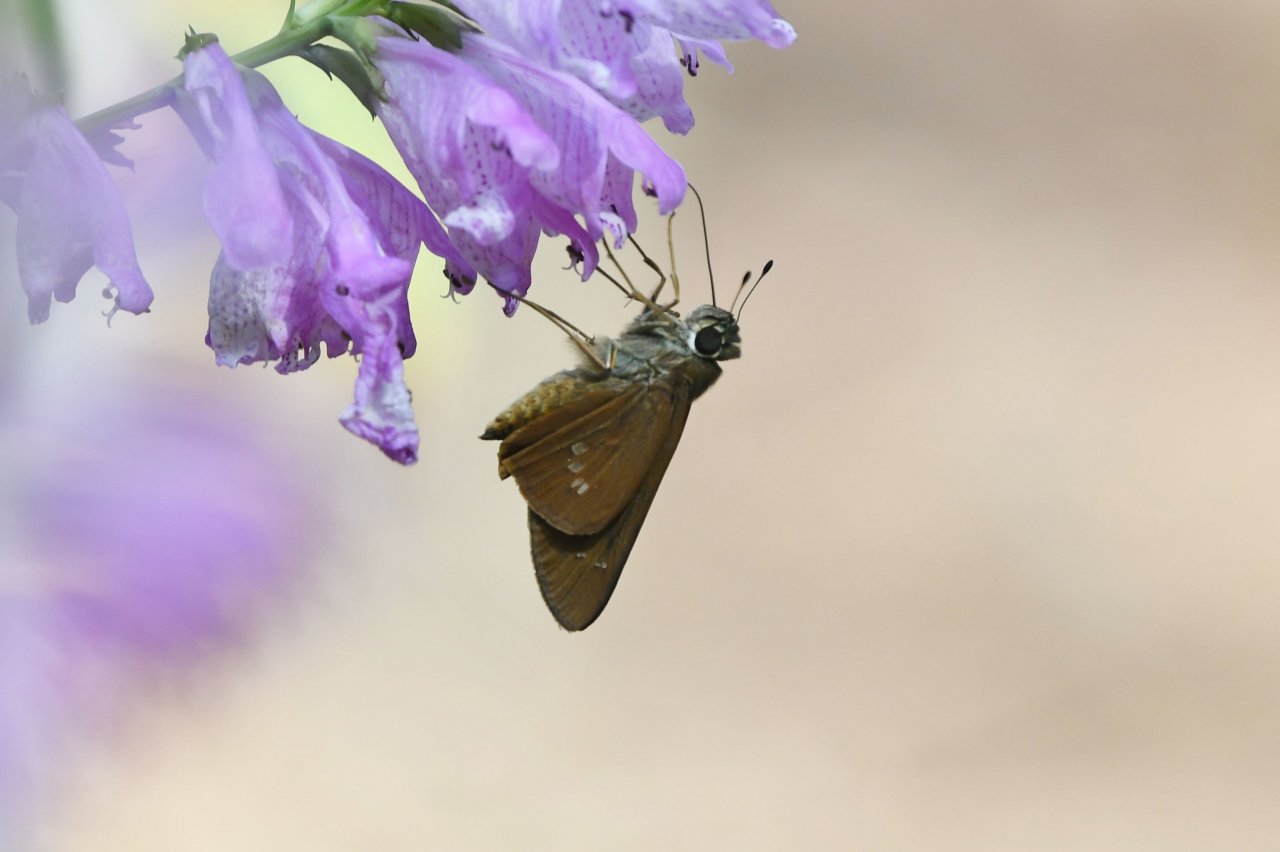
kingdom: Animalia
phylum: Arthropoda
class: Insecta
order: Lepidoptera
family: Hesperiidae
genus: Calpodes
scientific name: Calpodes ethlius
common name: Brazilian Skipper
